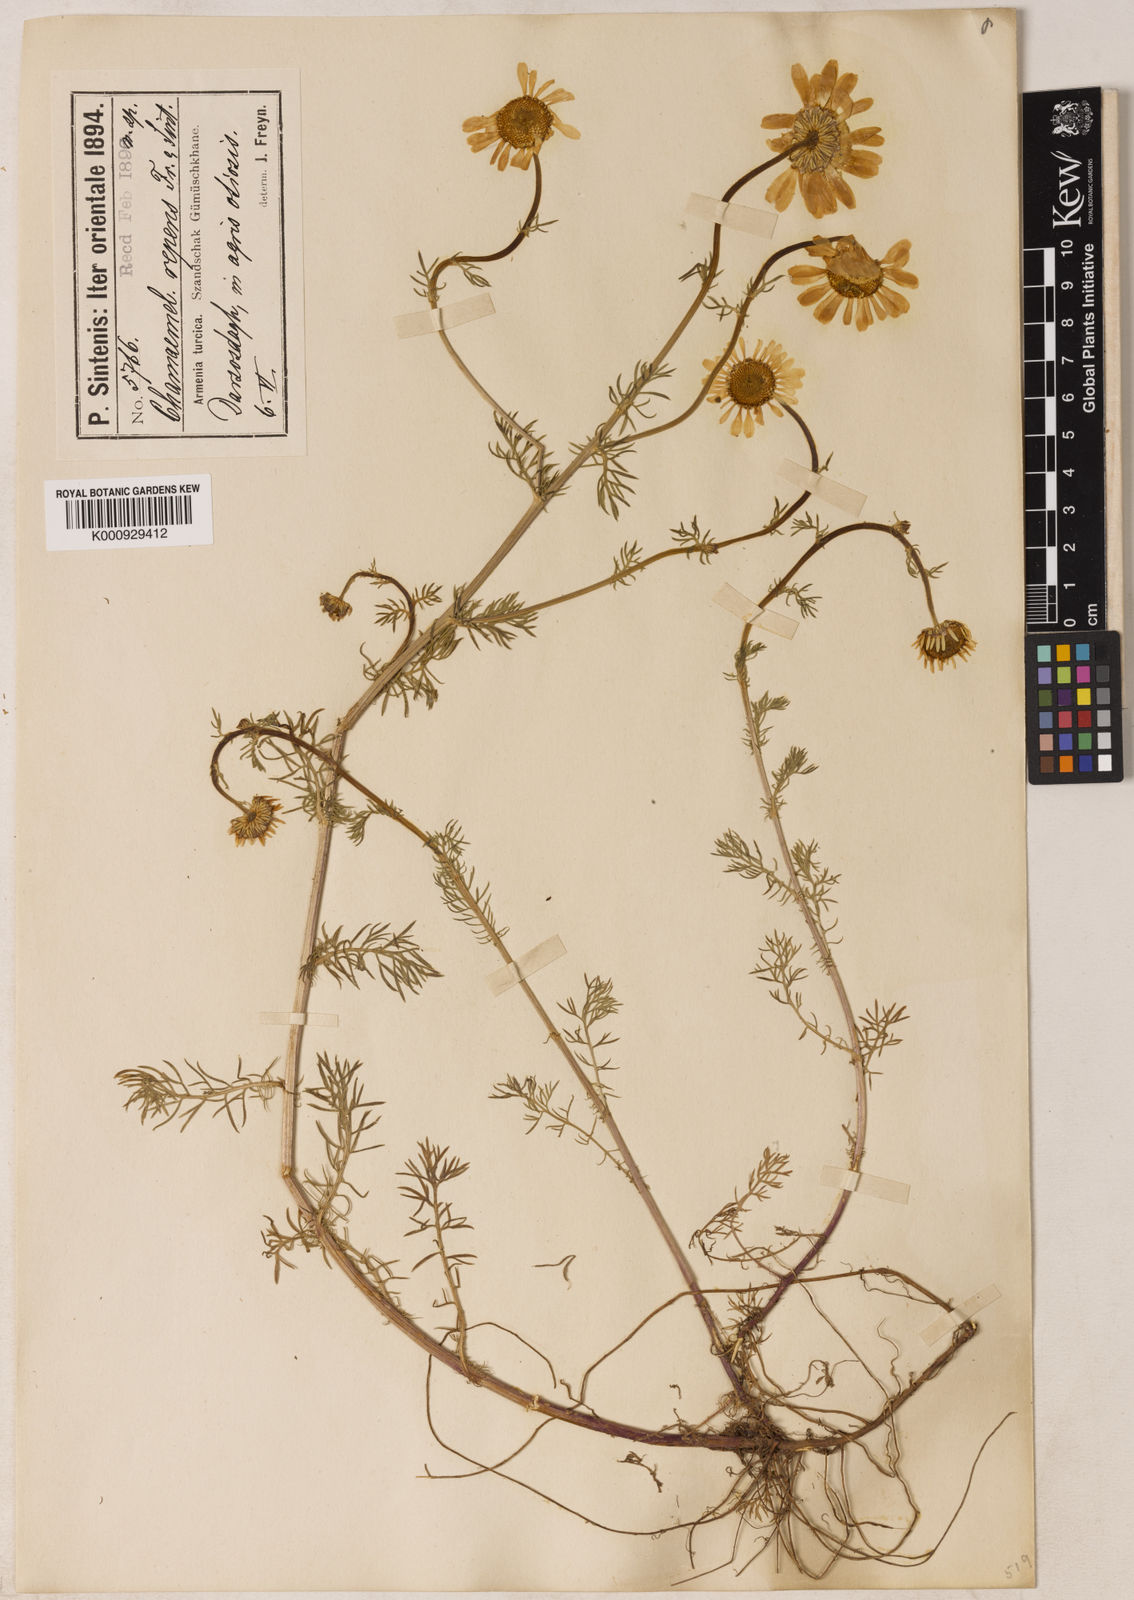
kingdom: Plantae
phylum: Tracheophyta
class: Magnoliopsida
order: Asterales
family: Asteraceae
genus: Tripleurospermum
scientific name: Tripleurospermum repens
